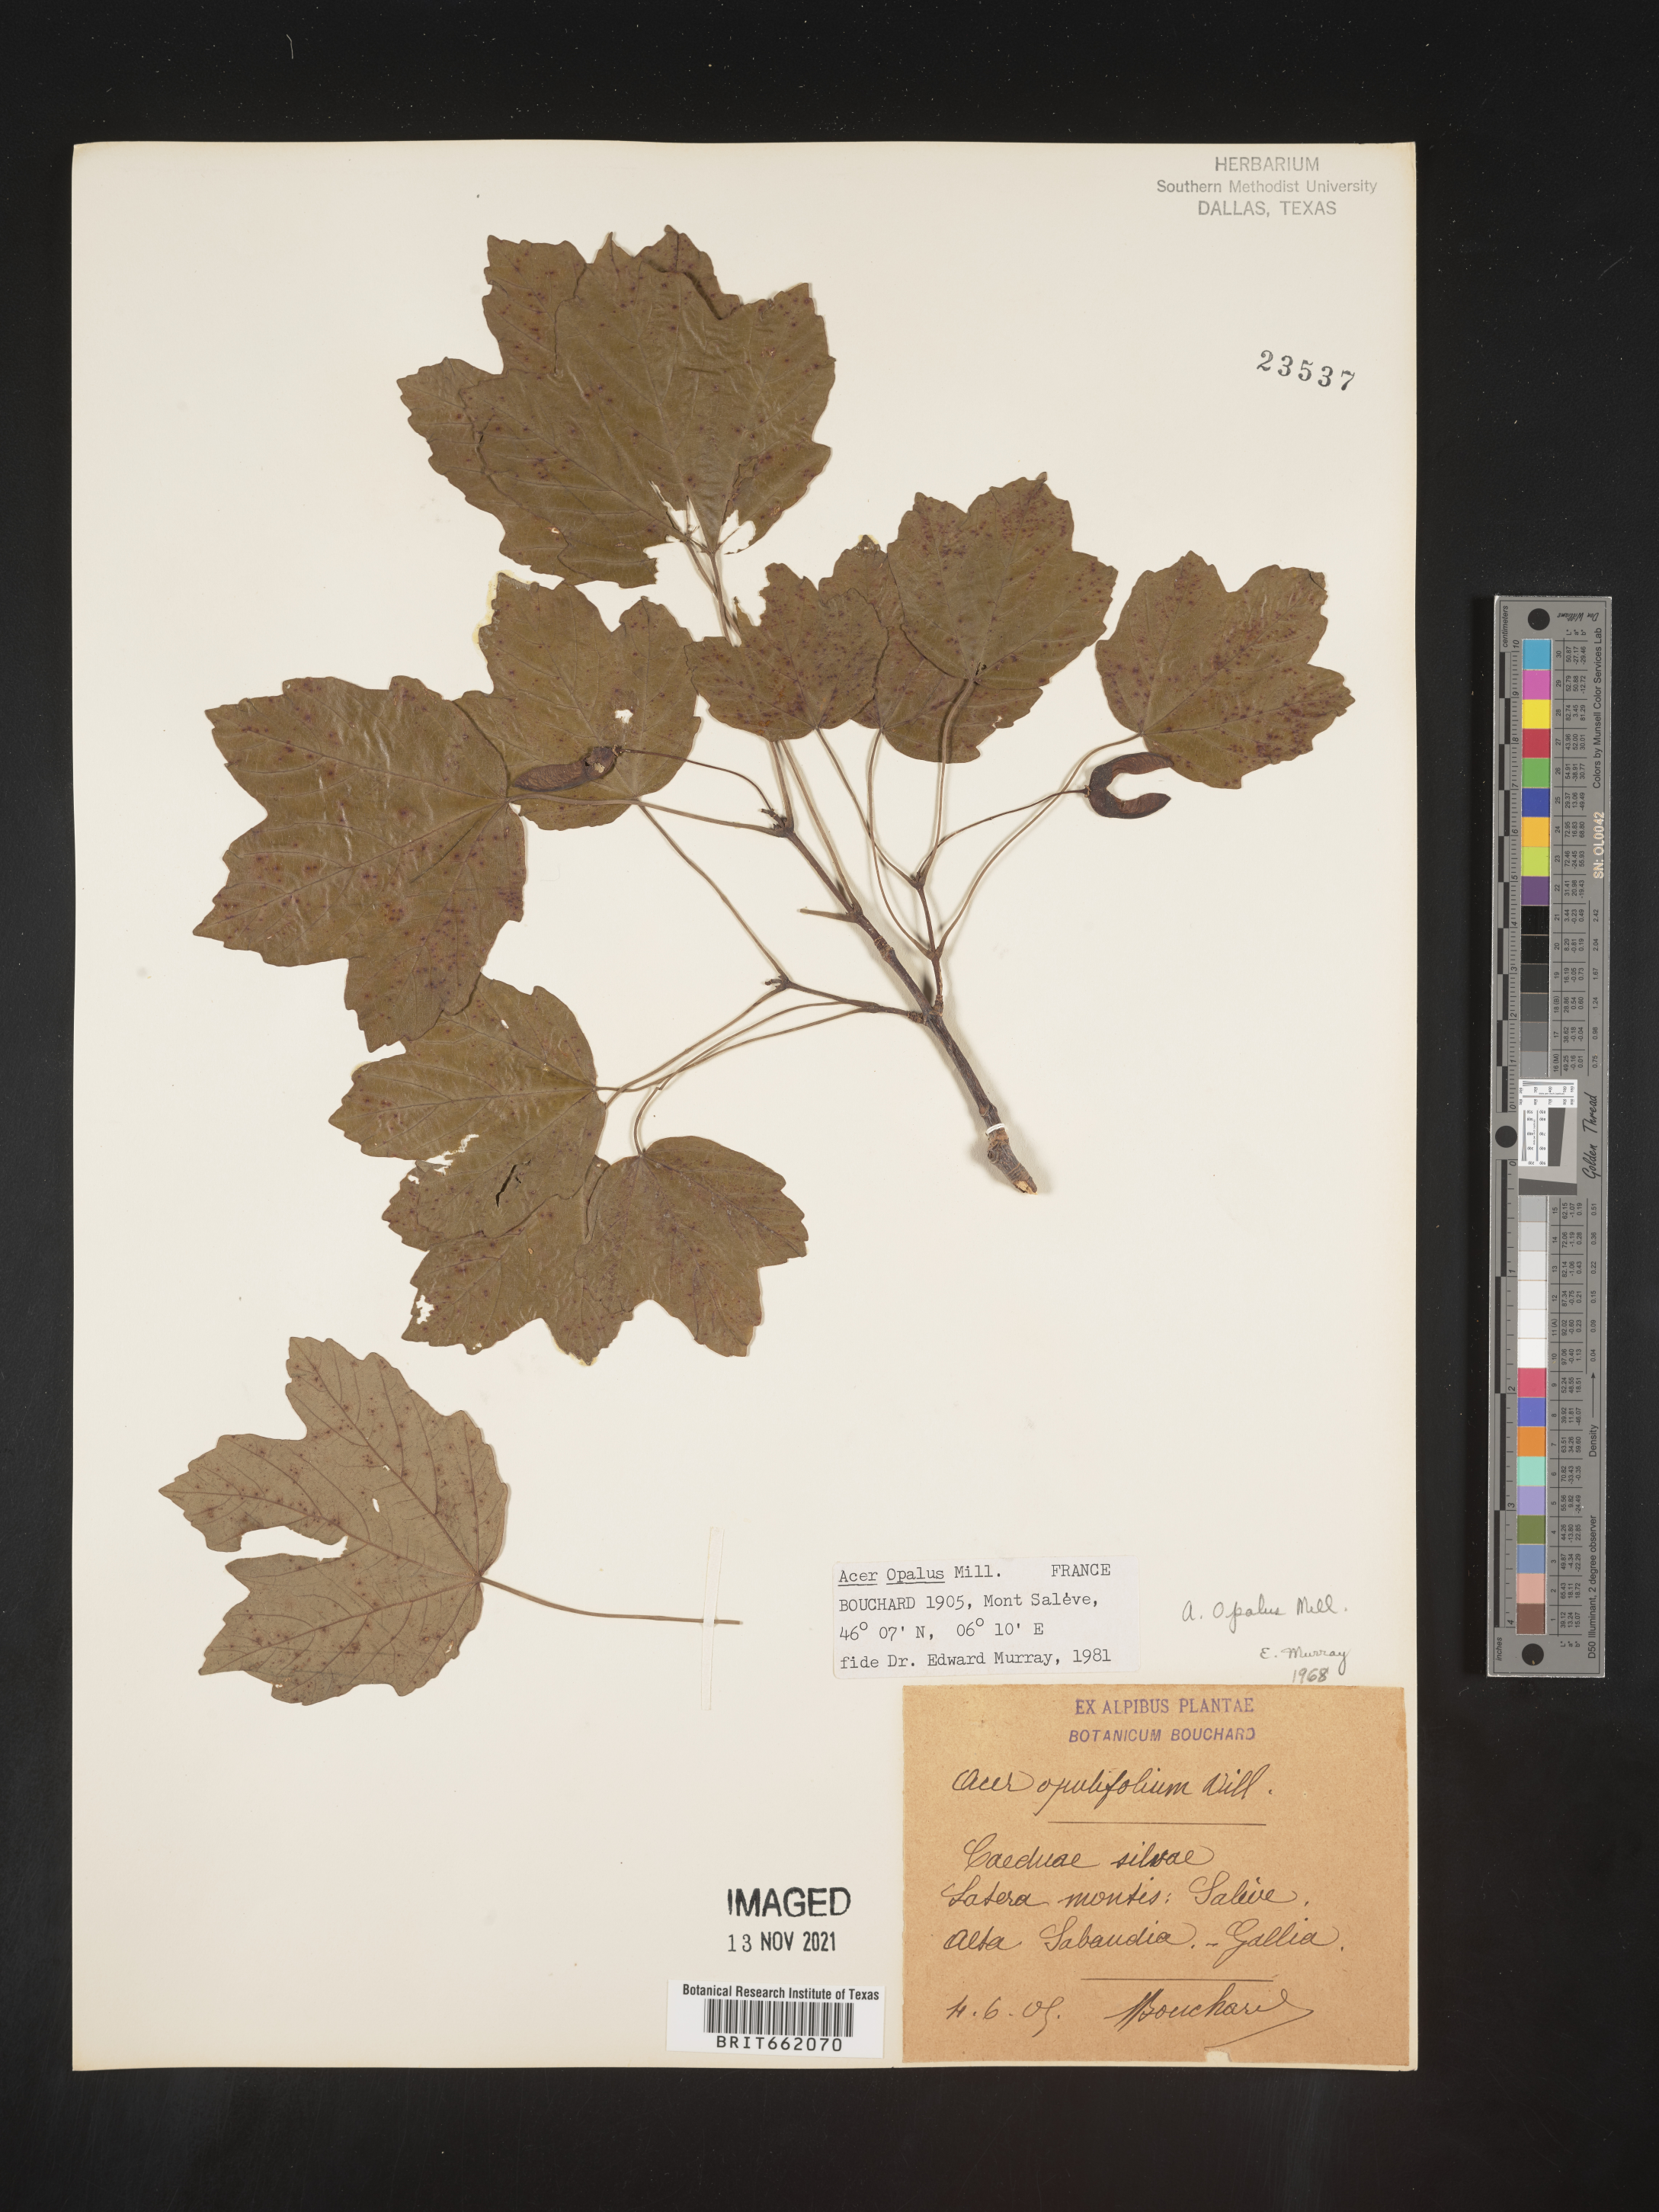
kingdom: Plantae
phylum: Tracheophyta
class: Magnoliopsida
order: Sapindales
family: Sapindaceae
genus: Acer
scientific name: Acer
